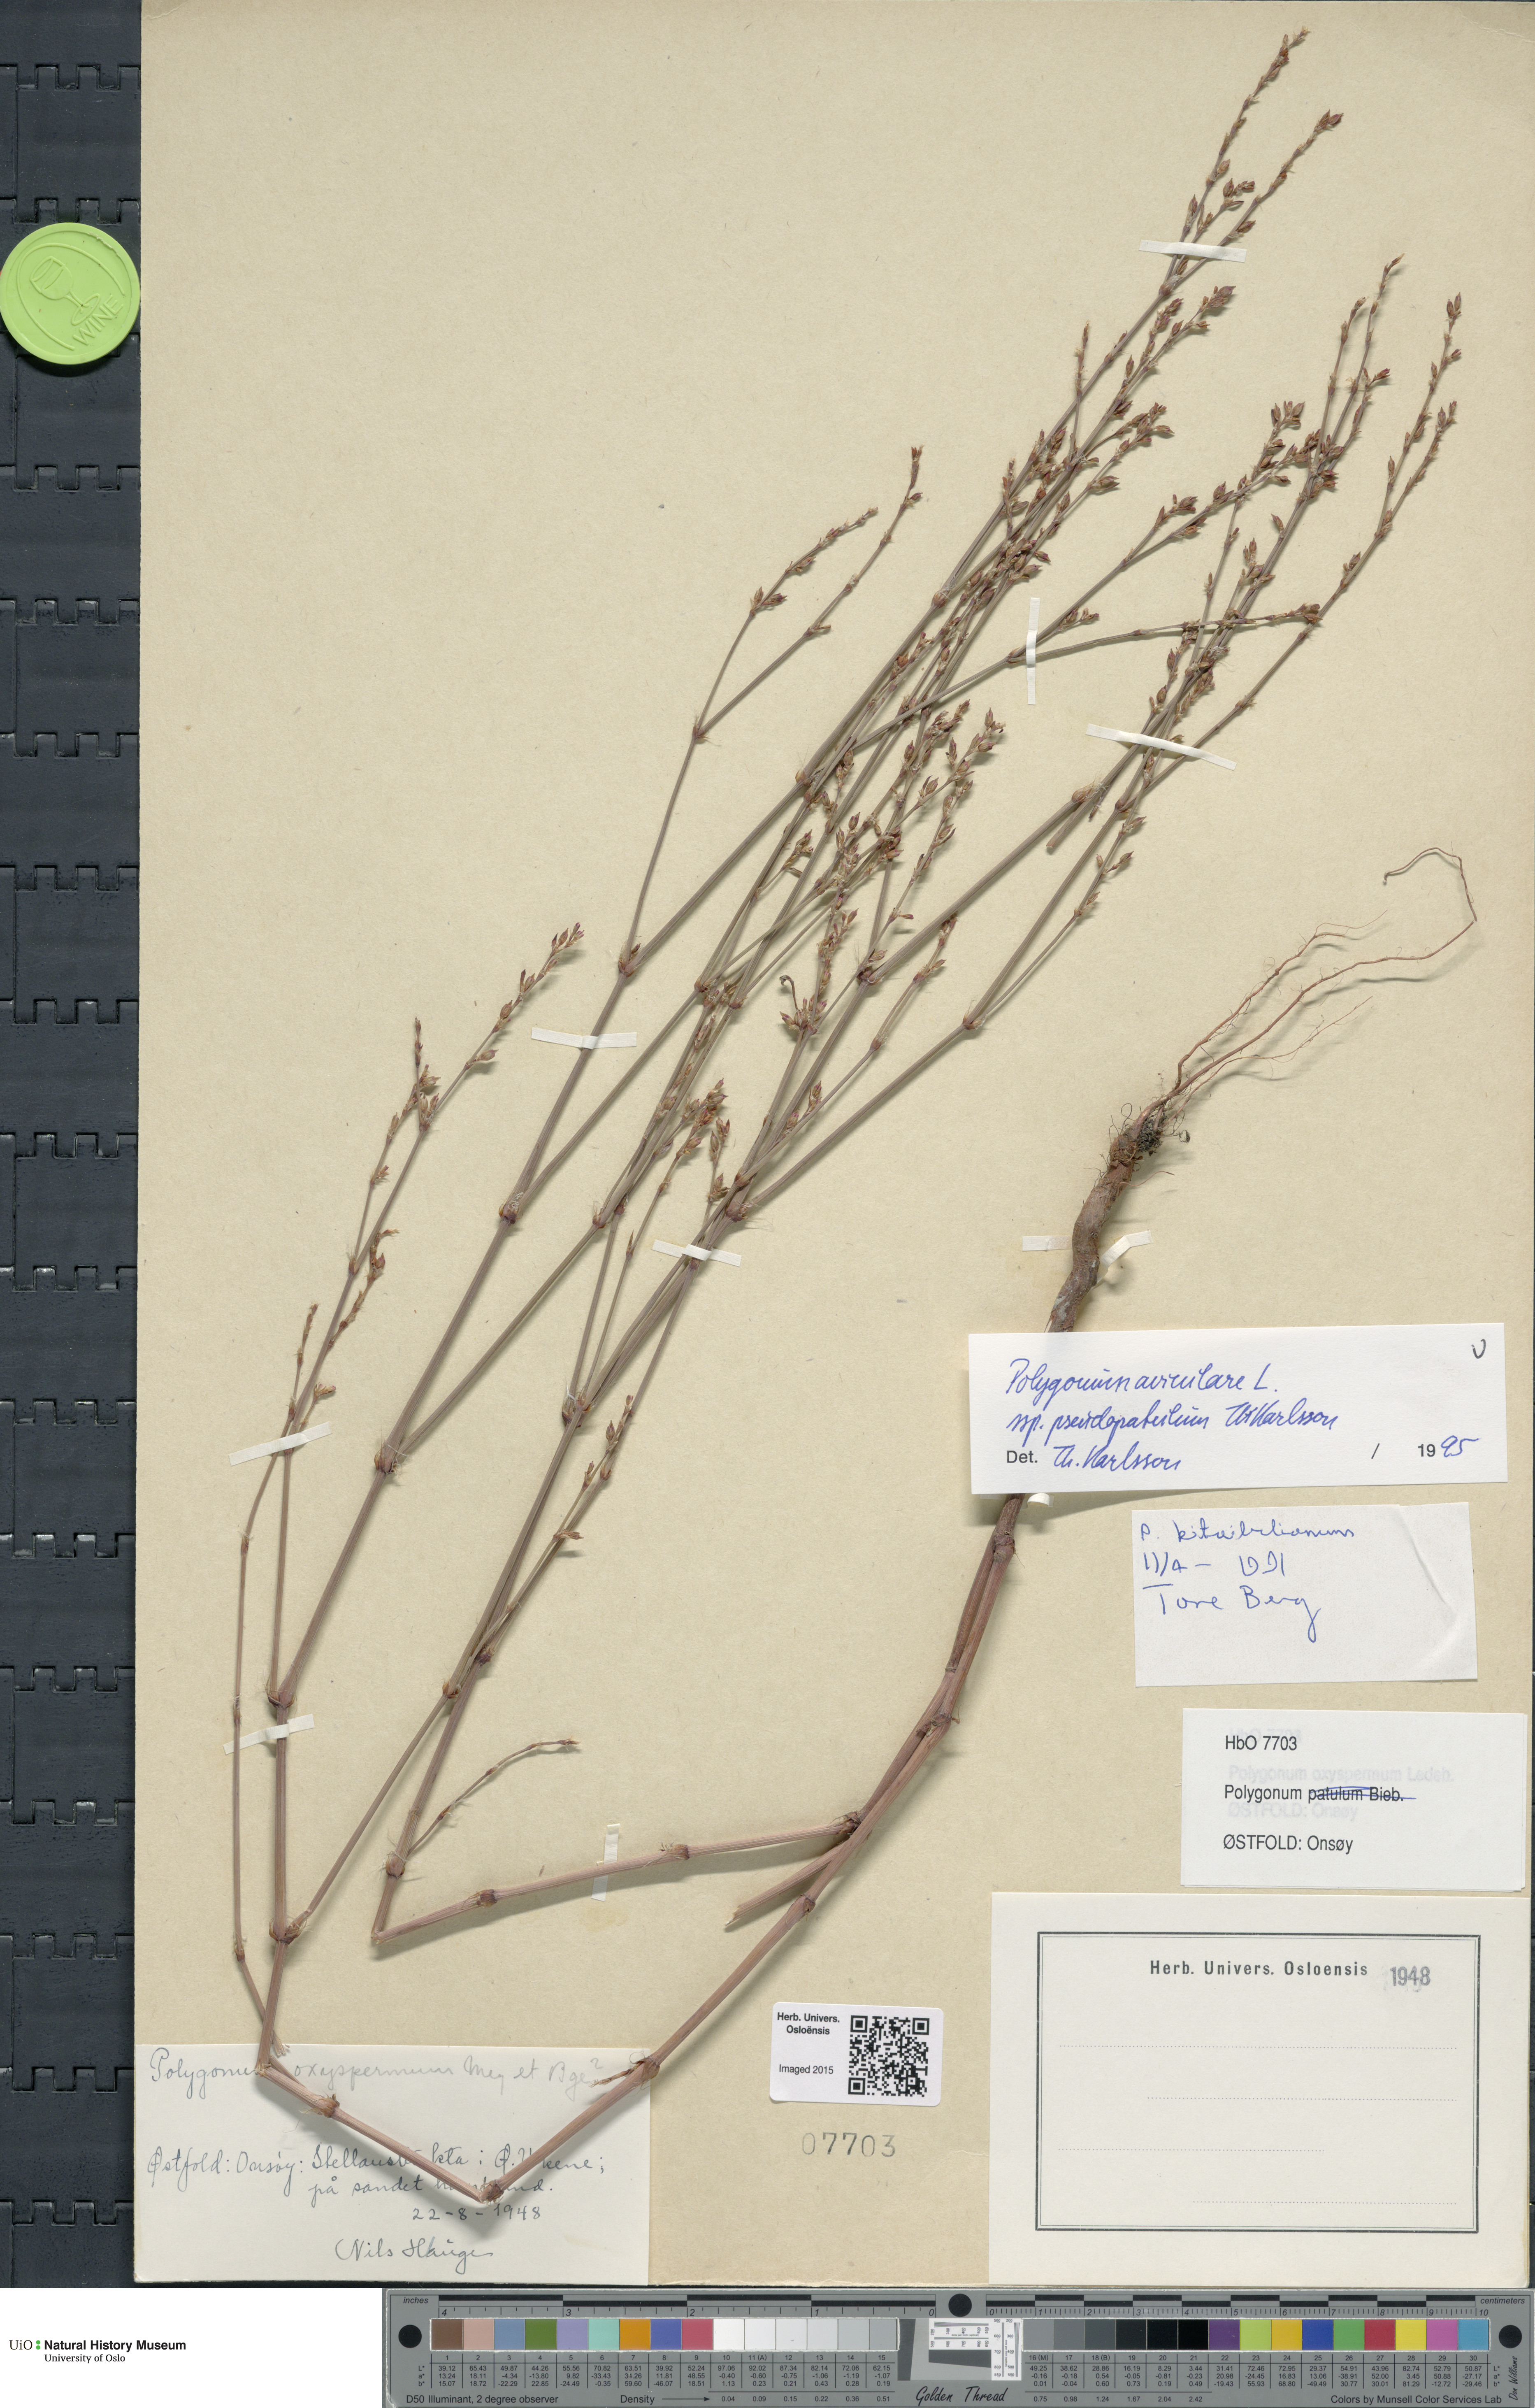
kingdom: Plantae
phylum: Tracheophyta
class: Magnoliopsida
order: Caryophyllales
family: Polygonaceae
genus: Polygonum
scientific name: Polygonum excelsius
